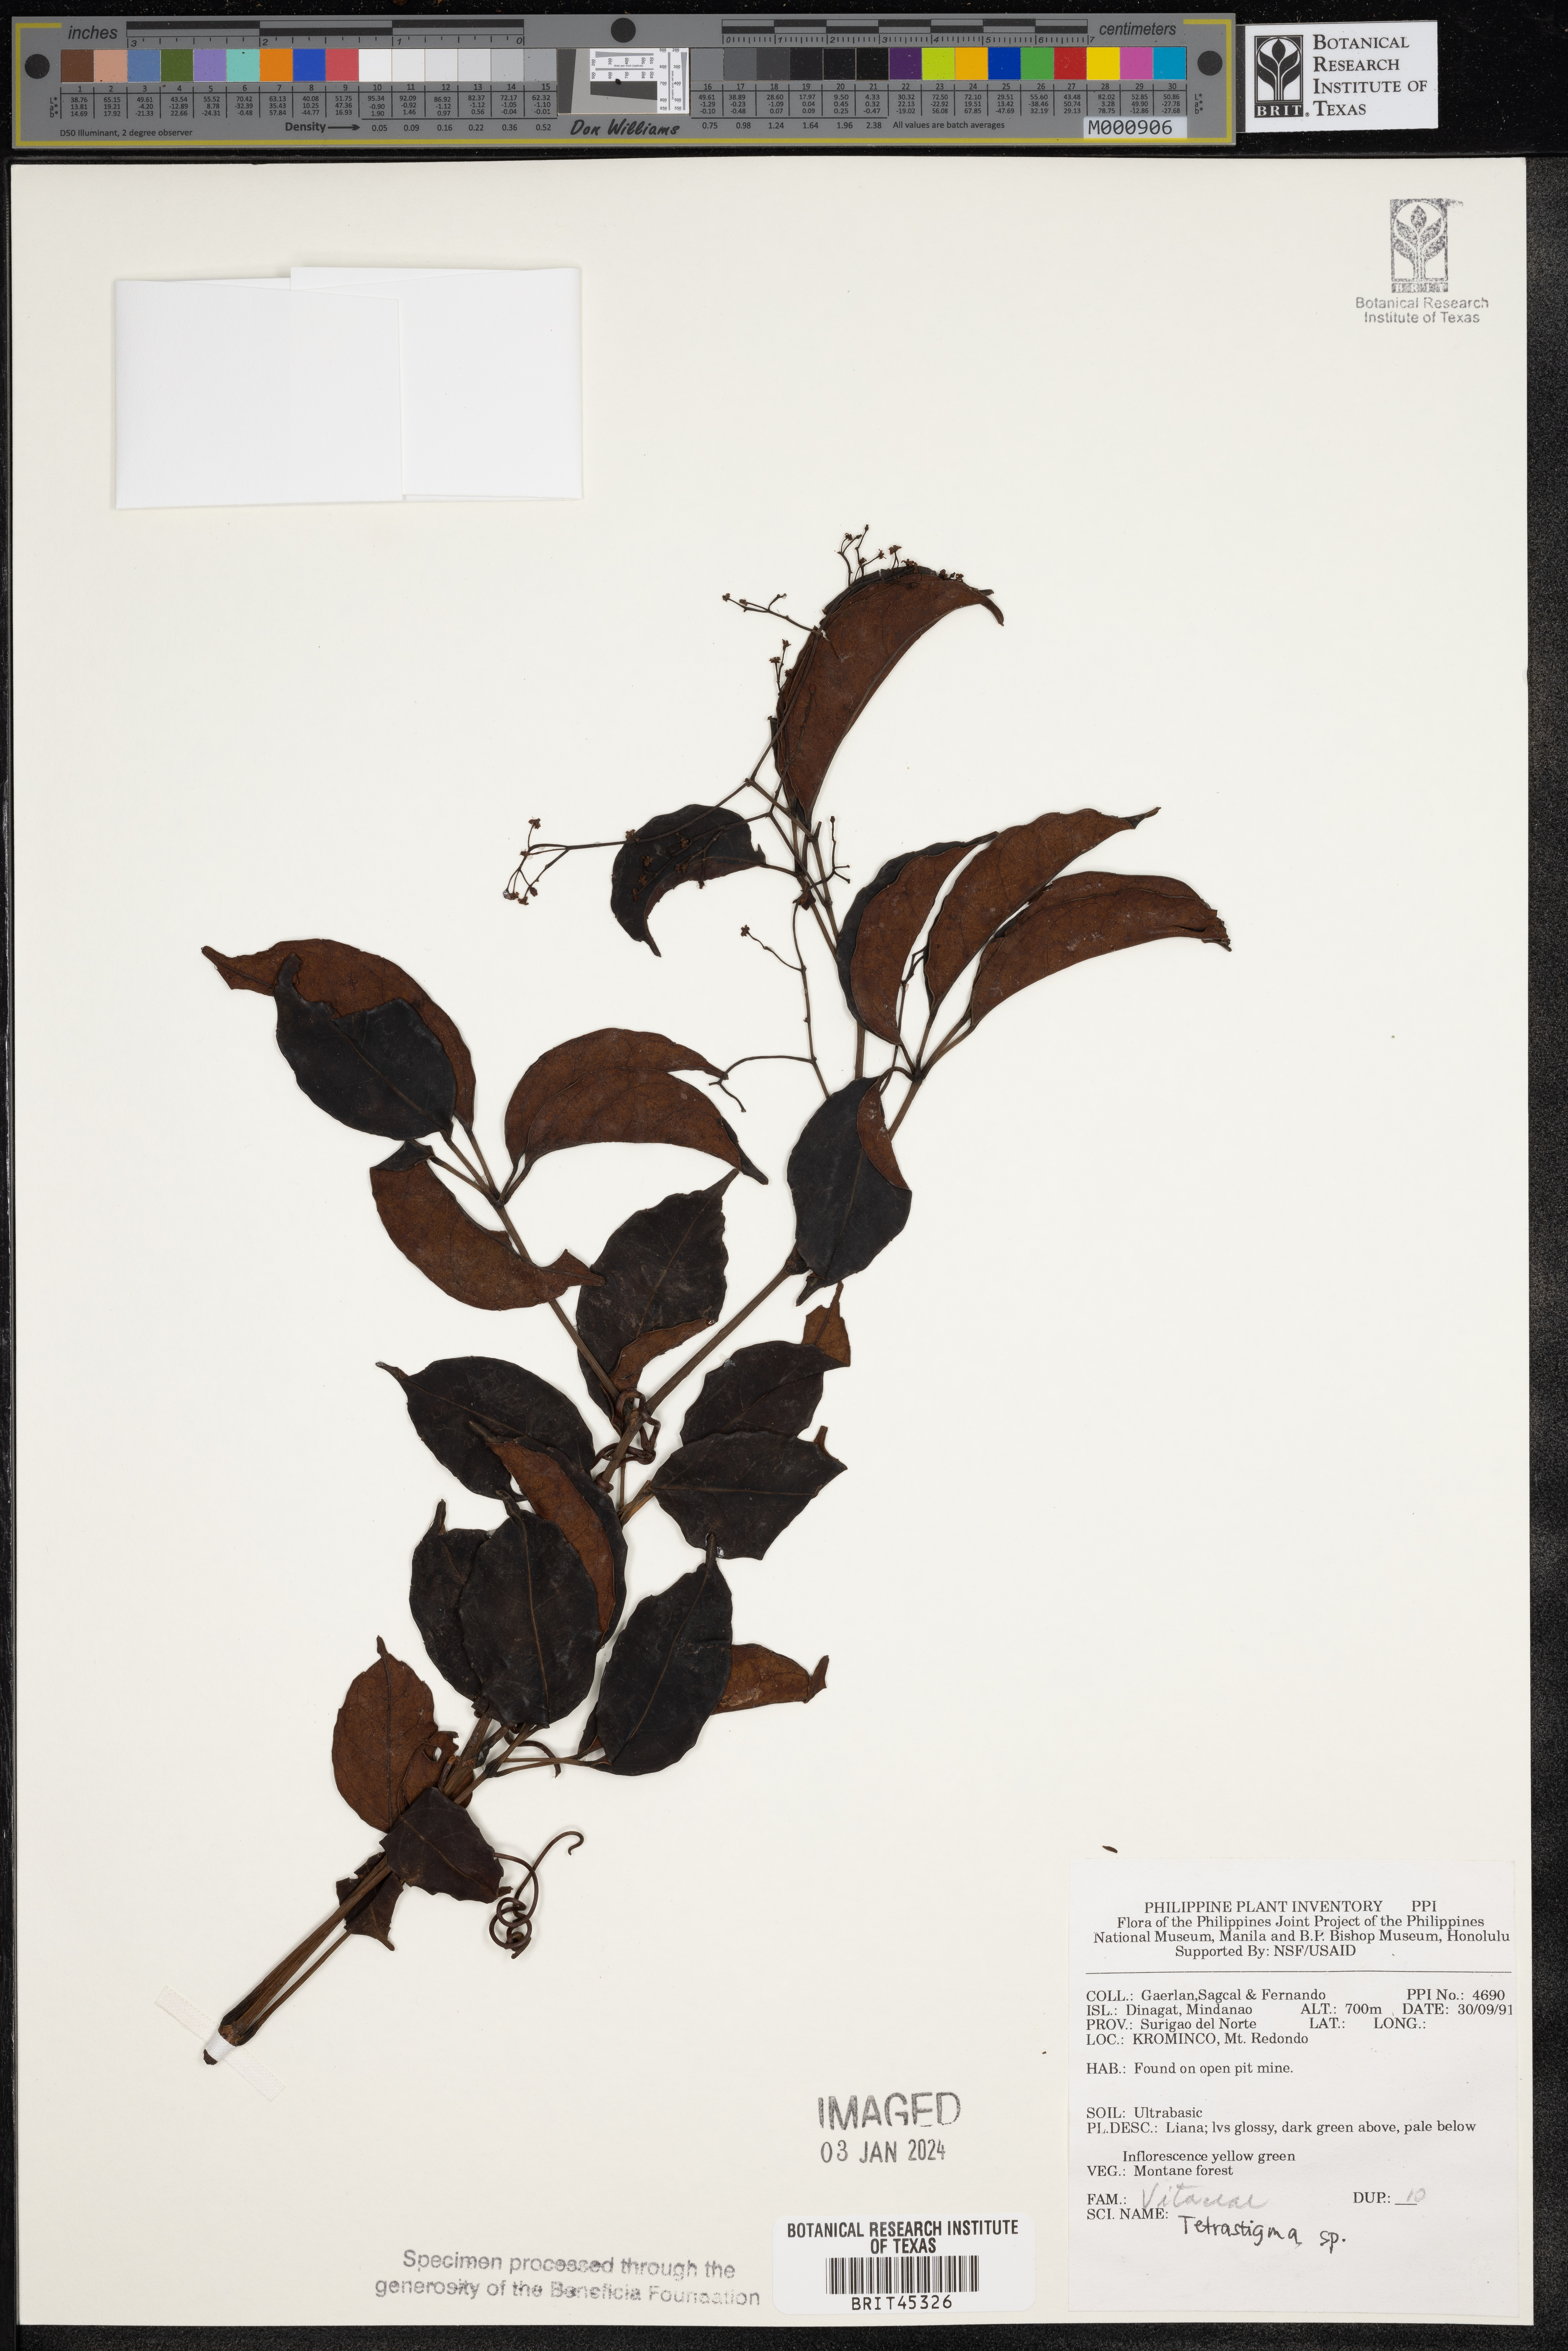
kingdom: Plantae
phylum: Tracheophyta
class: Magnoliopsida
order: Vitales
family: Vitaceae
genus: Tetrastigma
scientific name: Tetrastigma
